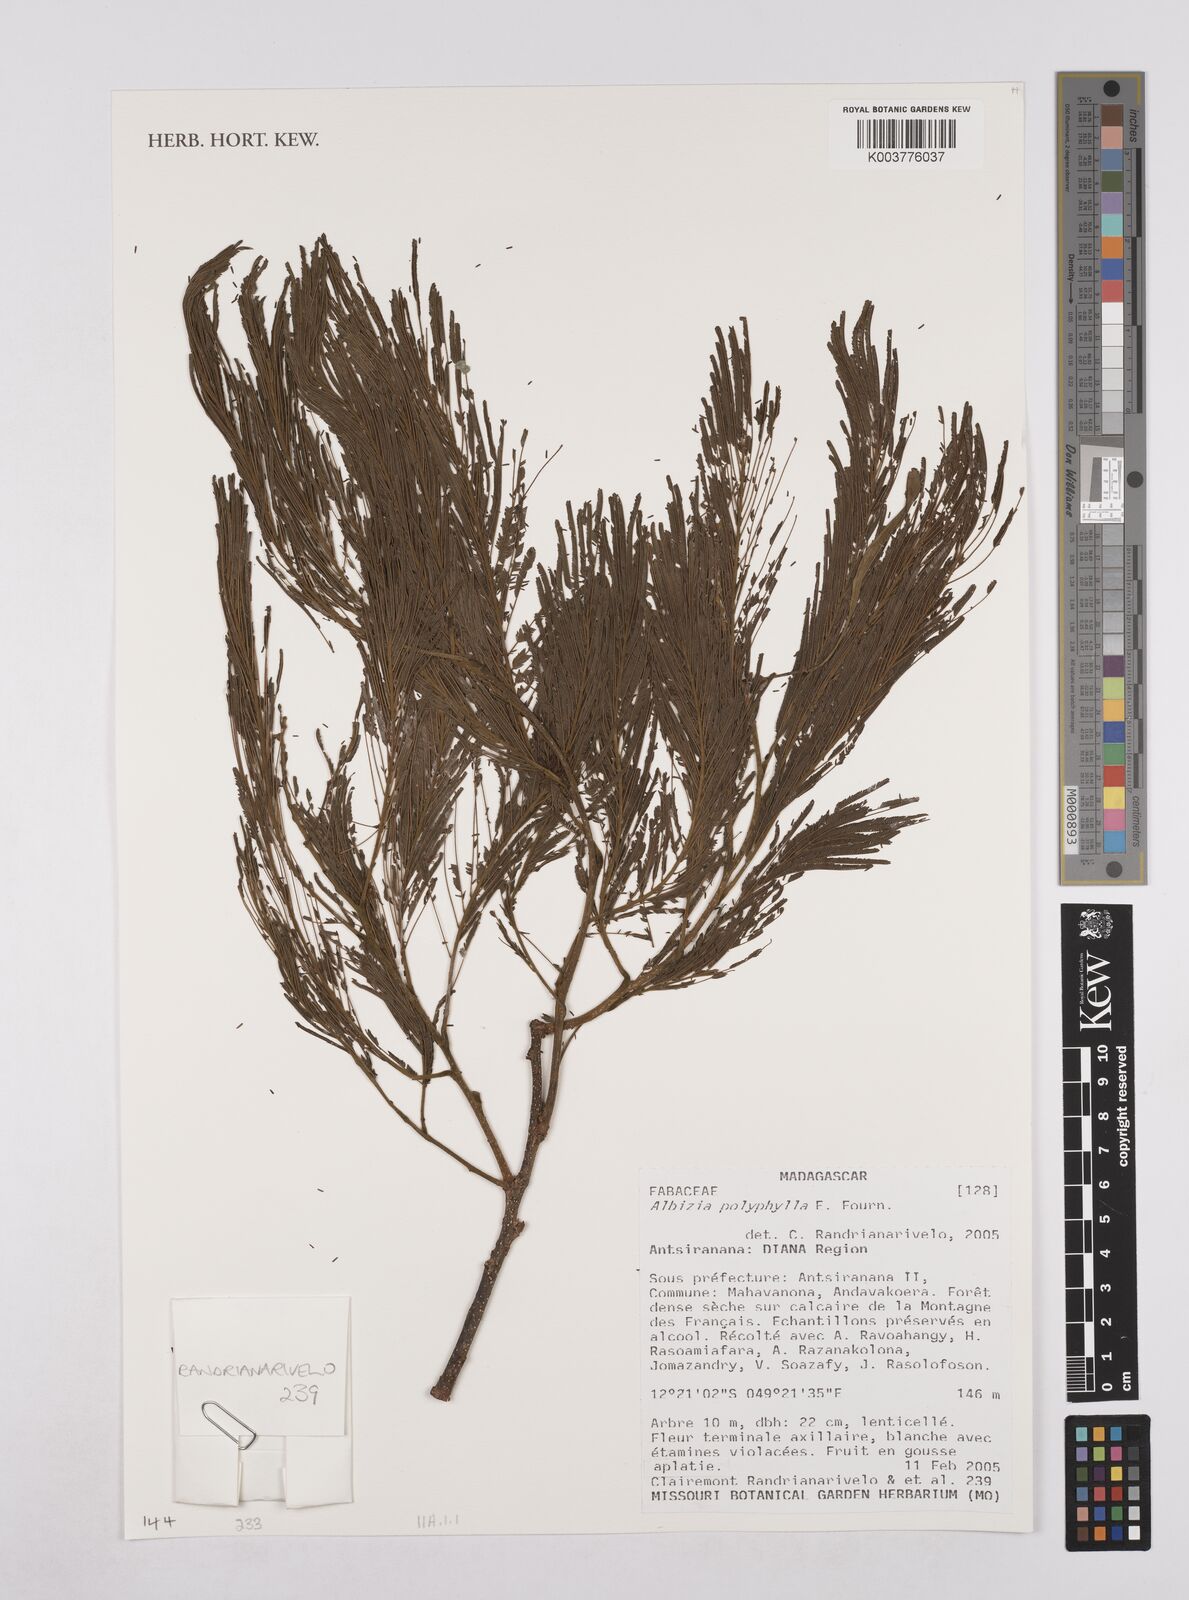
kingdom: Plantae
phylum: Tracheophyta
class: Magnoliopsida
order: Fabales
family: Fabaceae
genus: Albizia
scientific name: Albizia polyphylla
